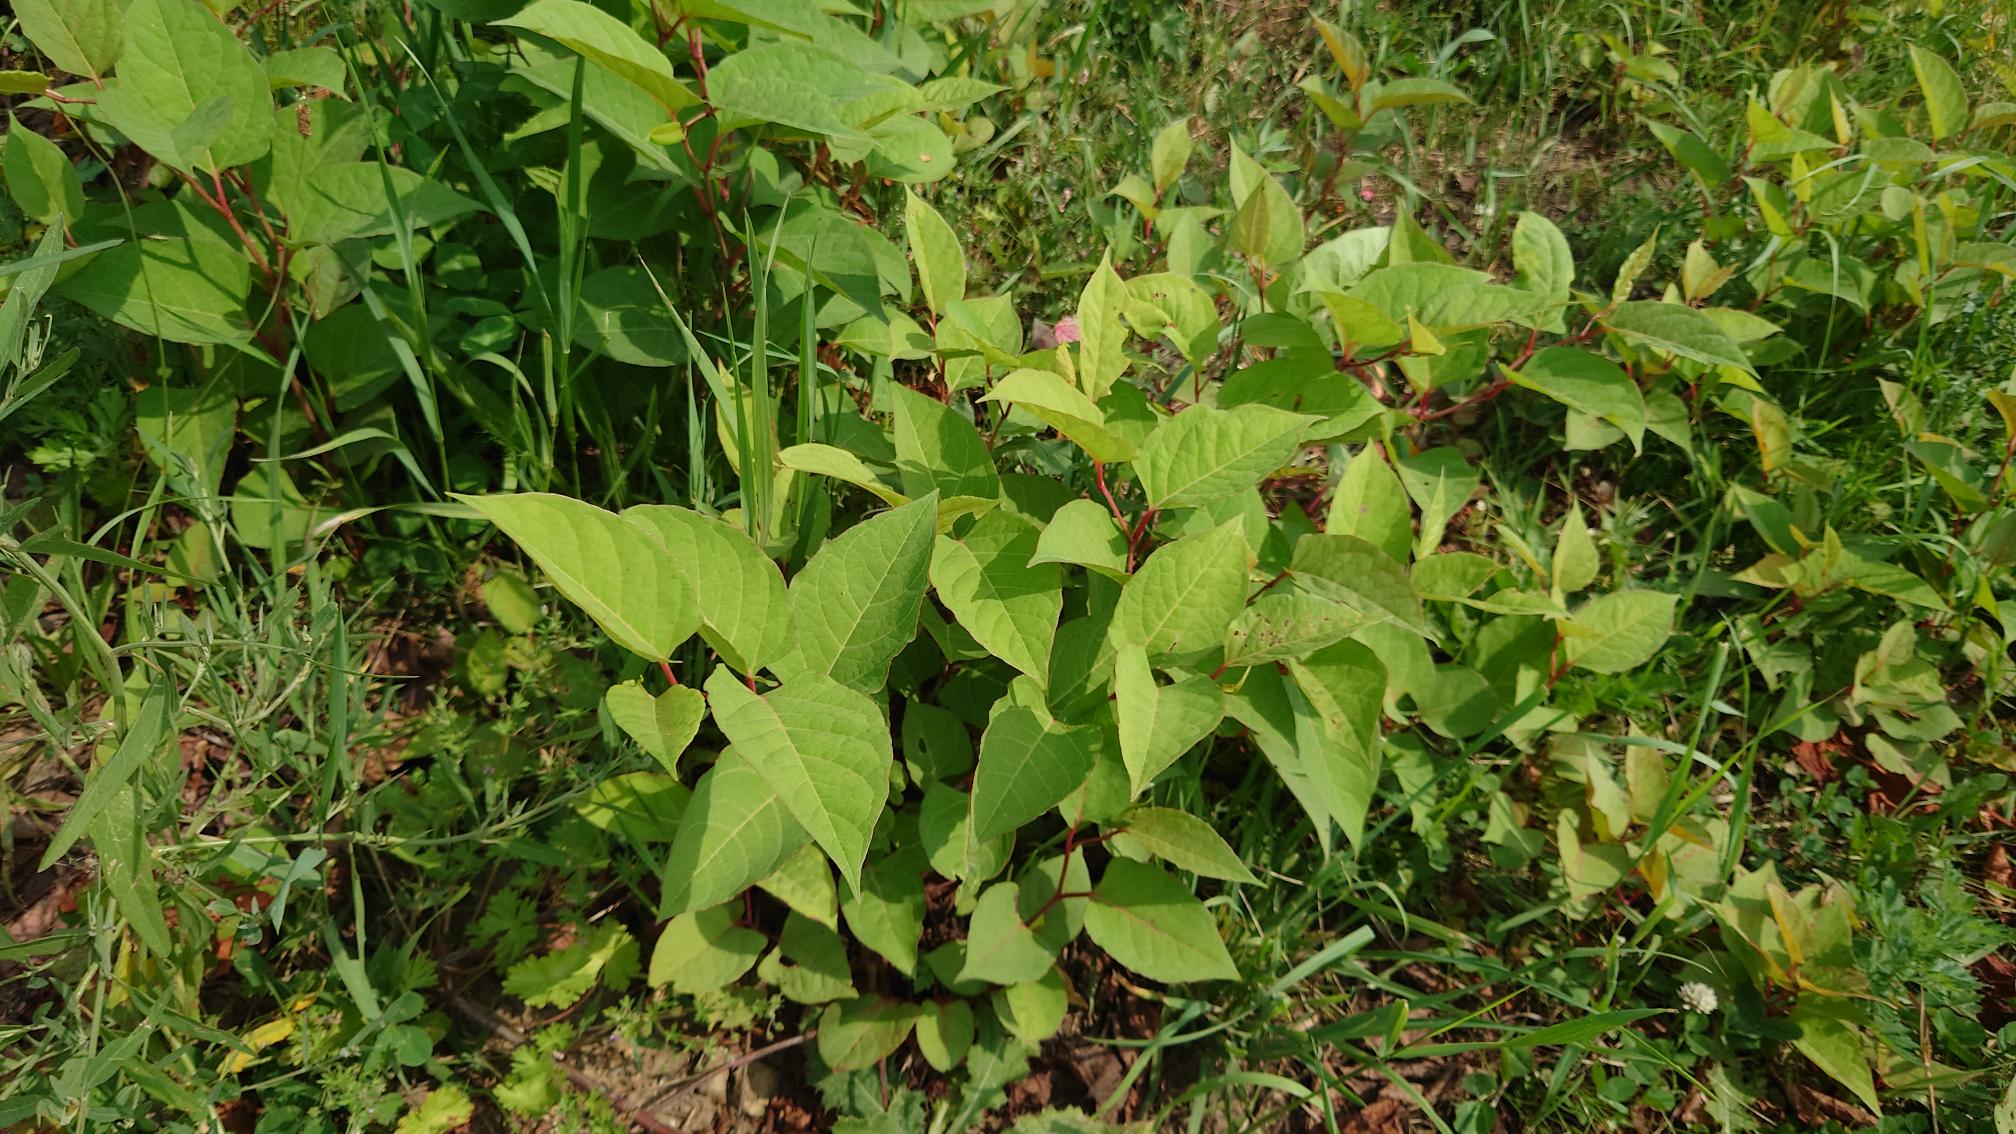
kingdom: Plantae
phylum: Tracheophyta
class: Magnoliopsida
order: Caryophyllales
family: Polygonaceae
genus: Reynoutria
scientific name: Reynoutria japonica
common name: Japan-pileurt
